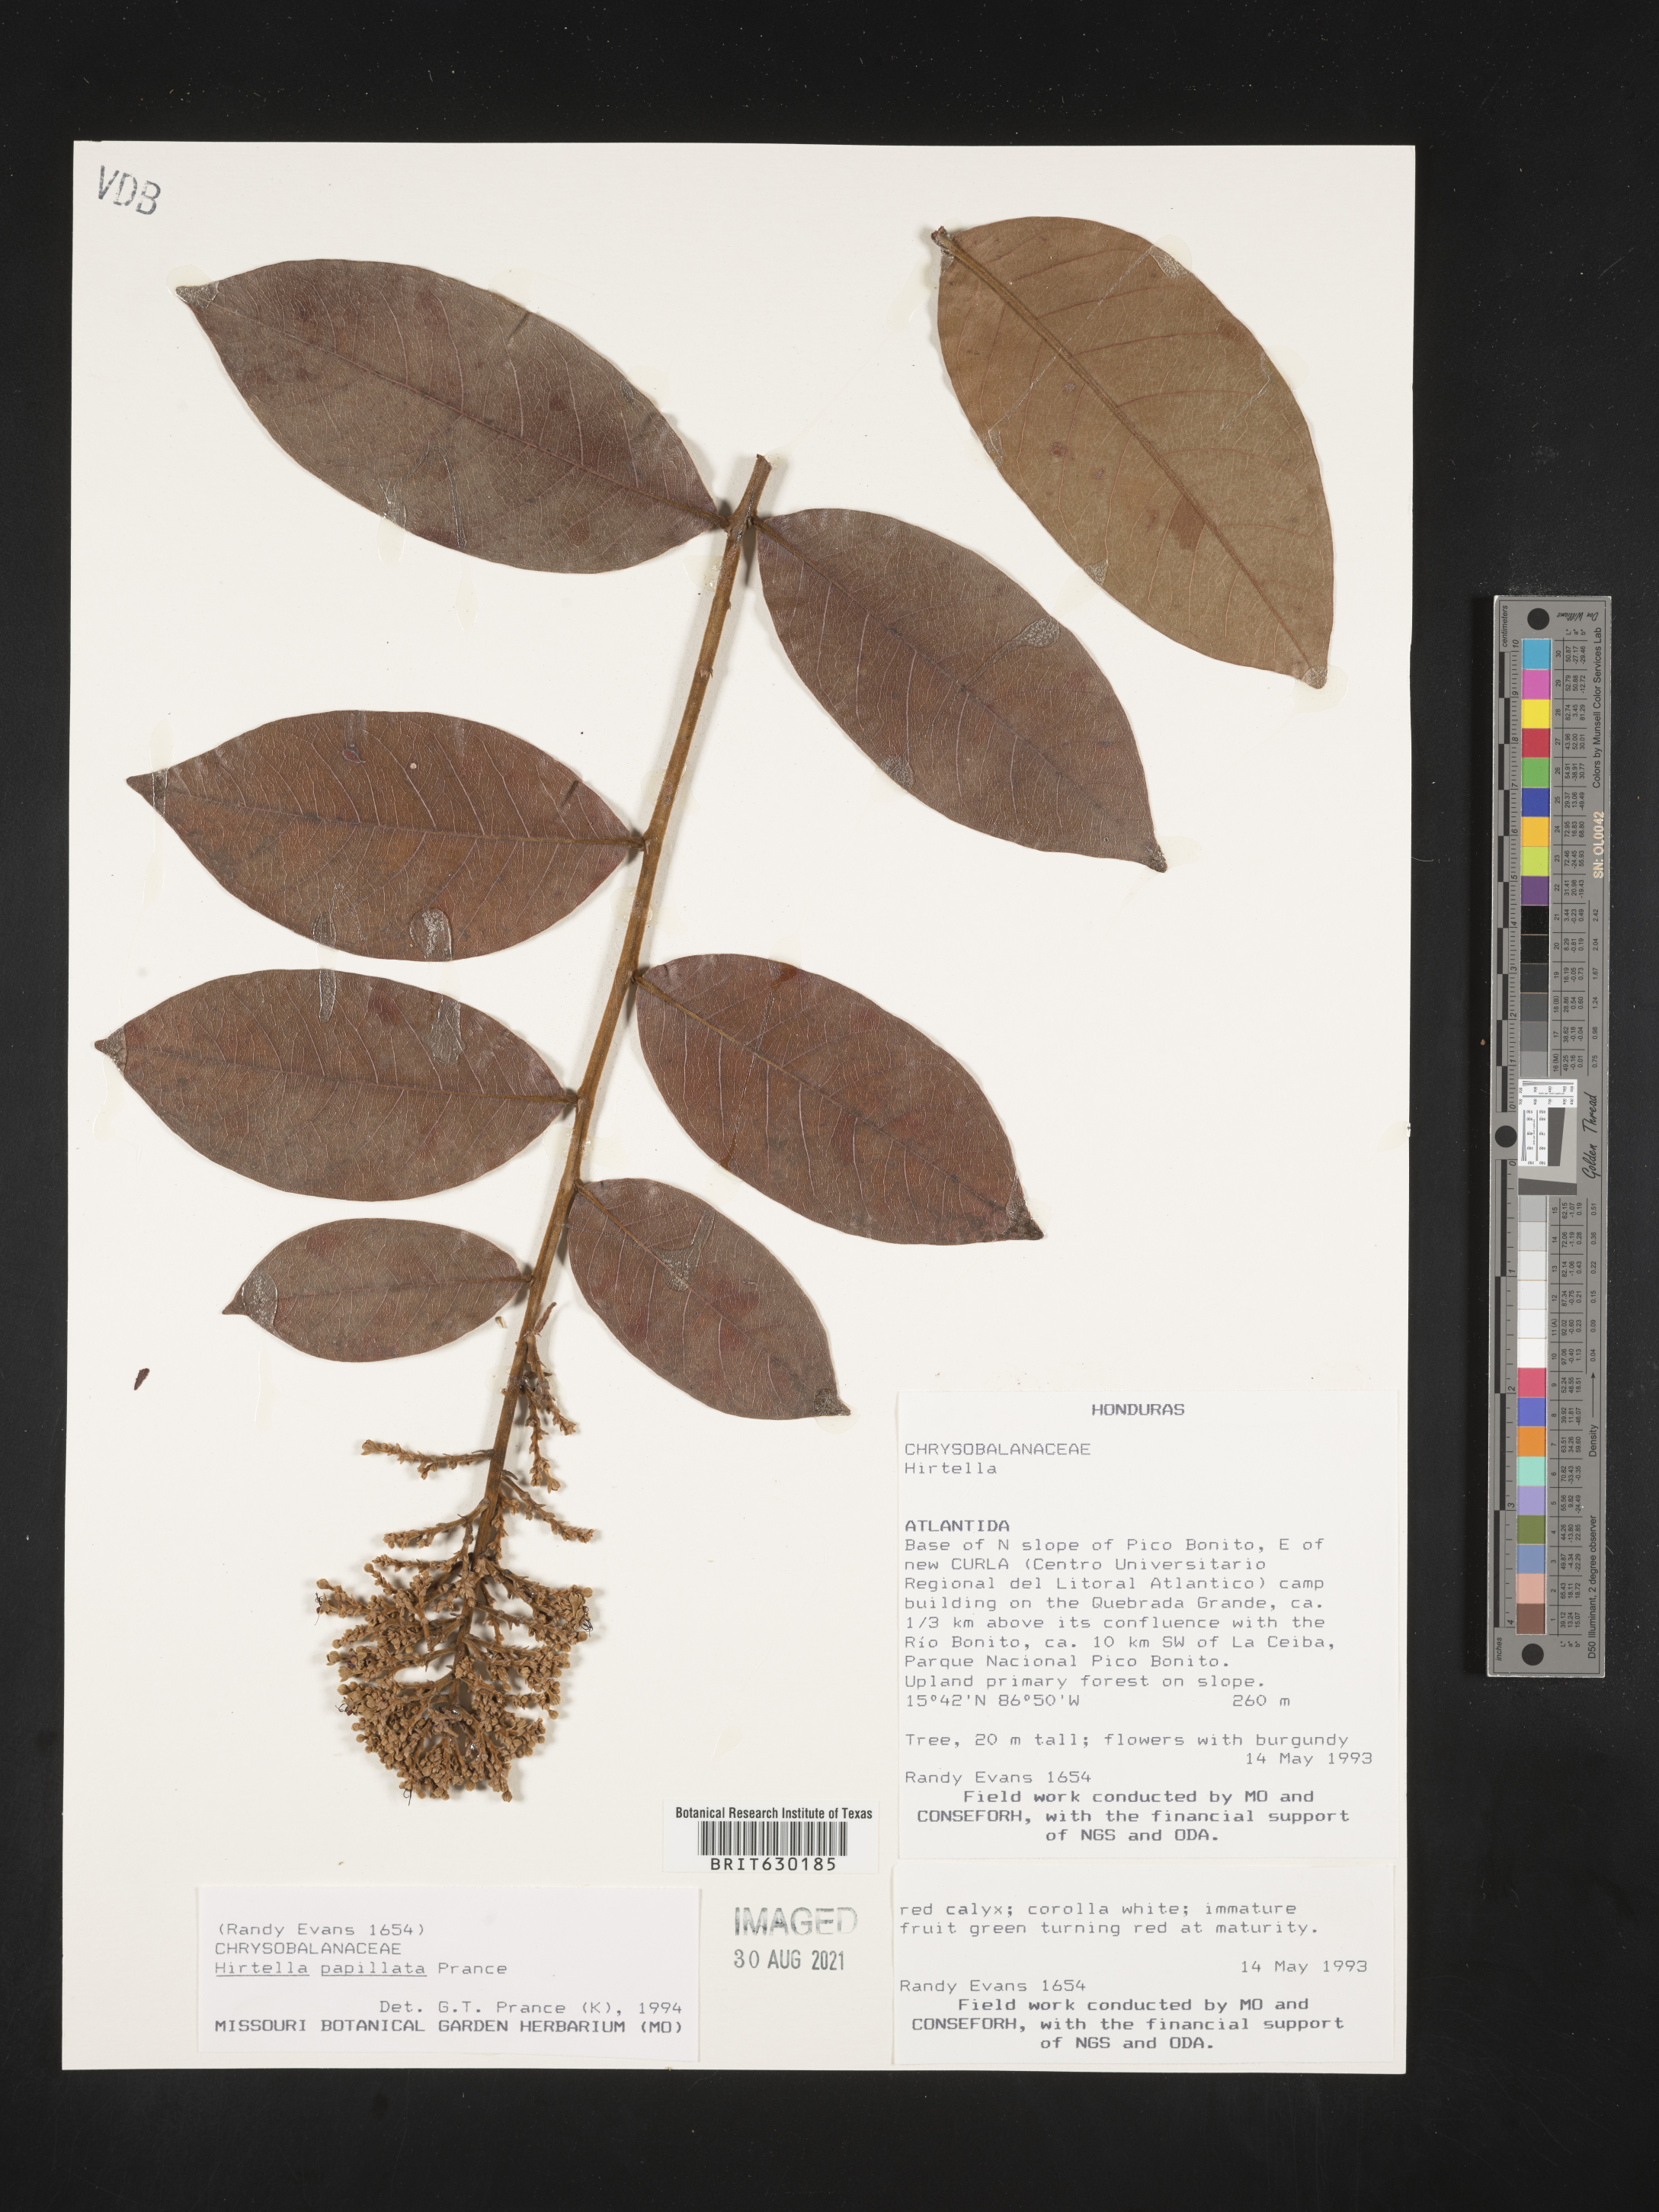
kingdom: Plantae
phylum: Tracheophyta
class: Magnoliopsida
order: Malpighiales
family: Chrysobalanaceae
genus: Hirtella
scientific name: Hirtella papillata
